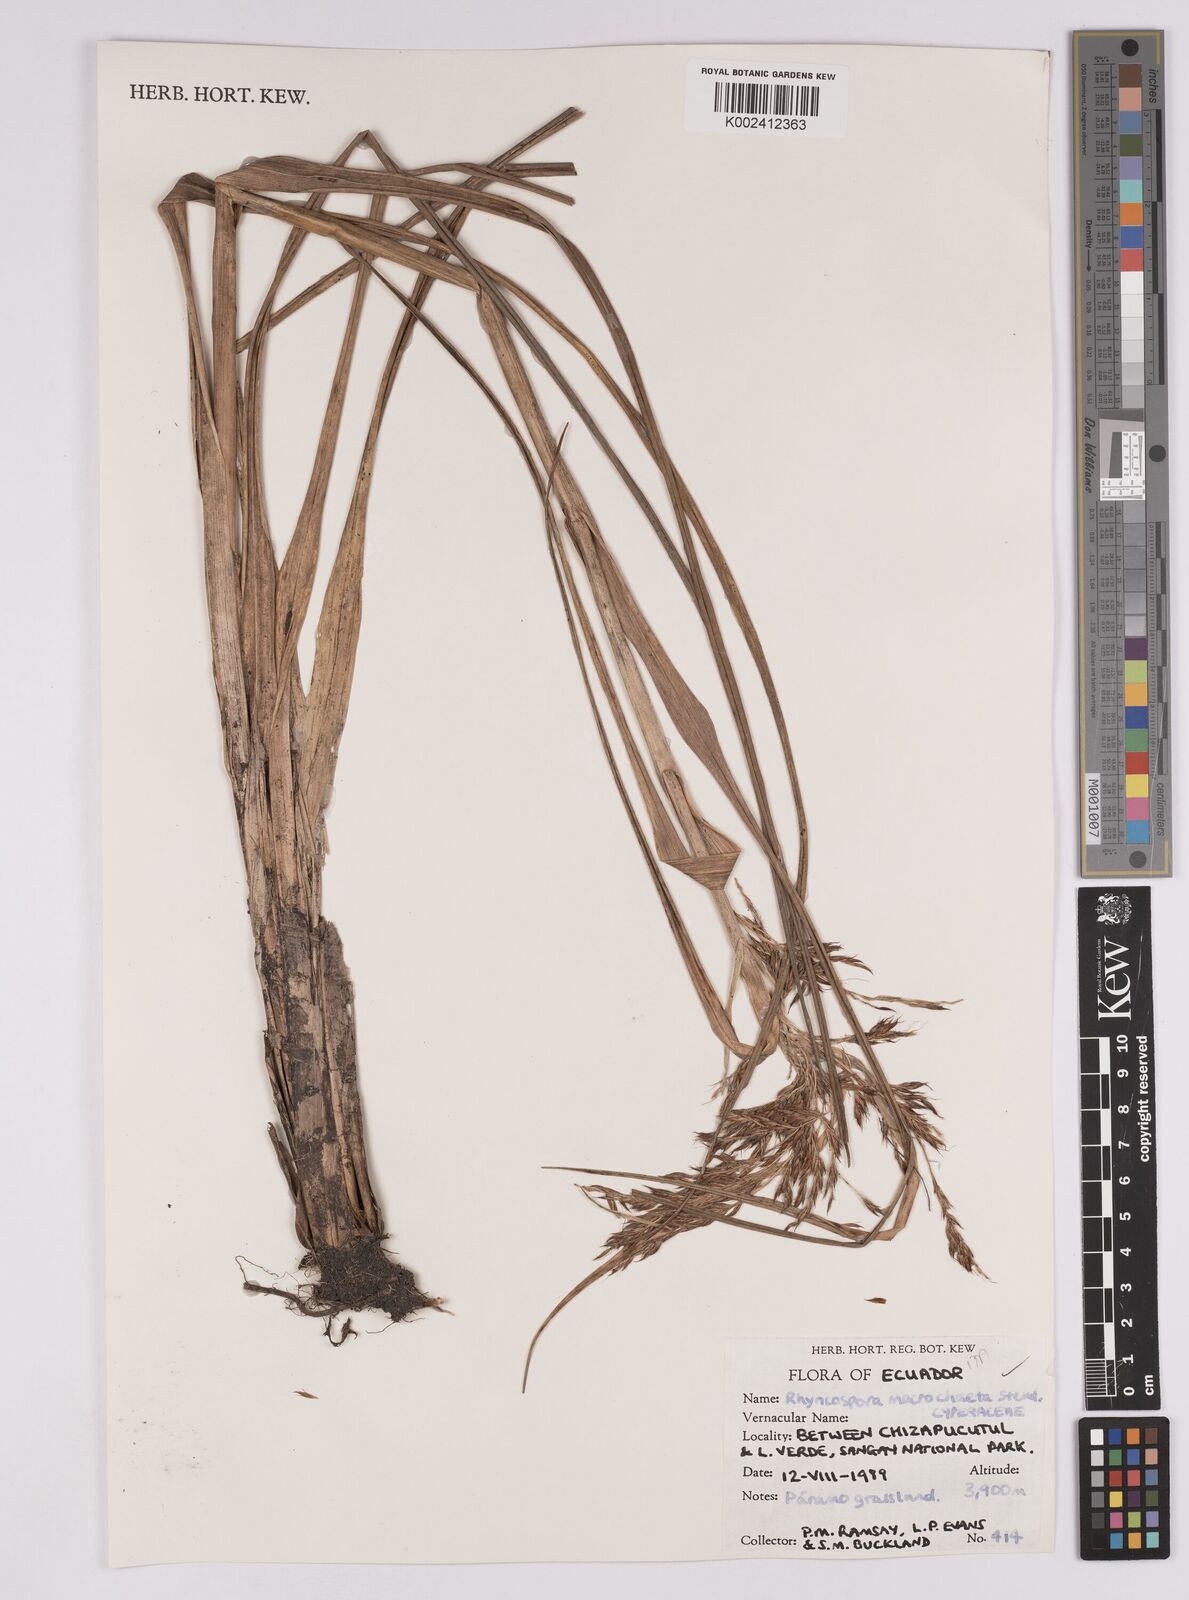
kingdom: Plantae
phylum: Tracheophyta
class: Liliopsida
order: Poales
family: Cyperaceae
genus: Rhynchospora
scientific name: Rhynchospora macrochaeta
